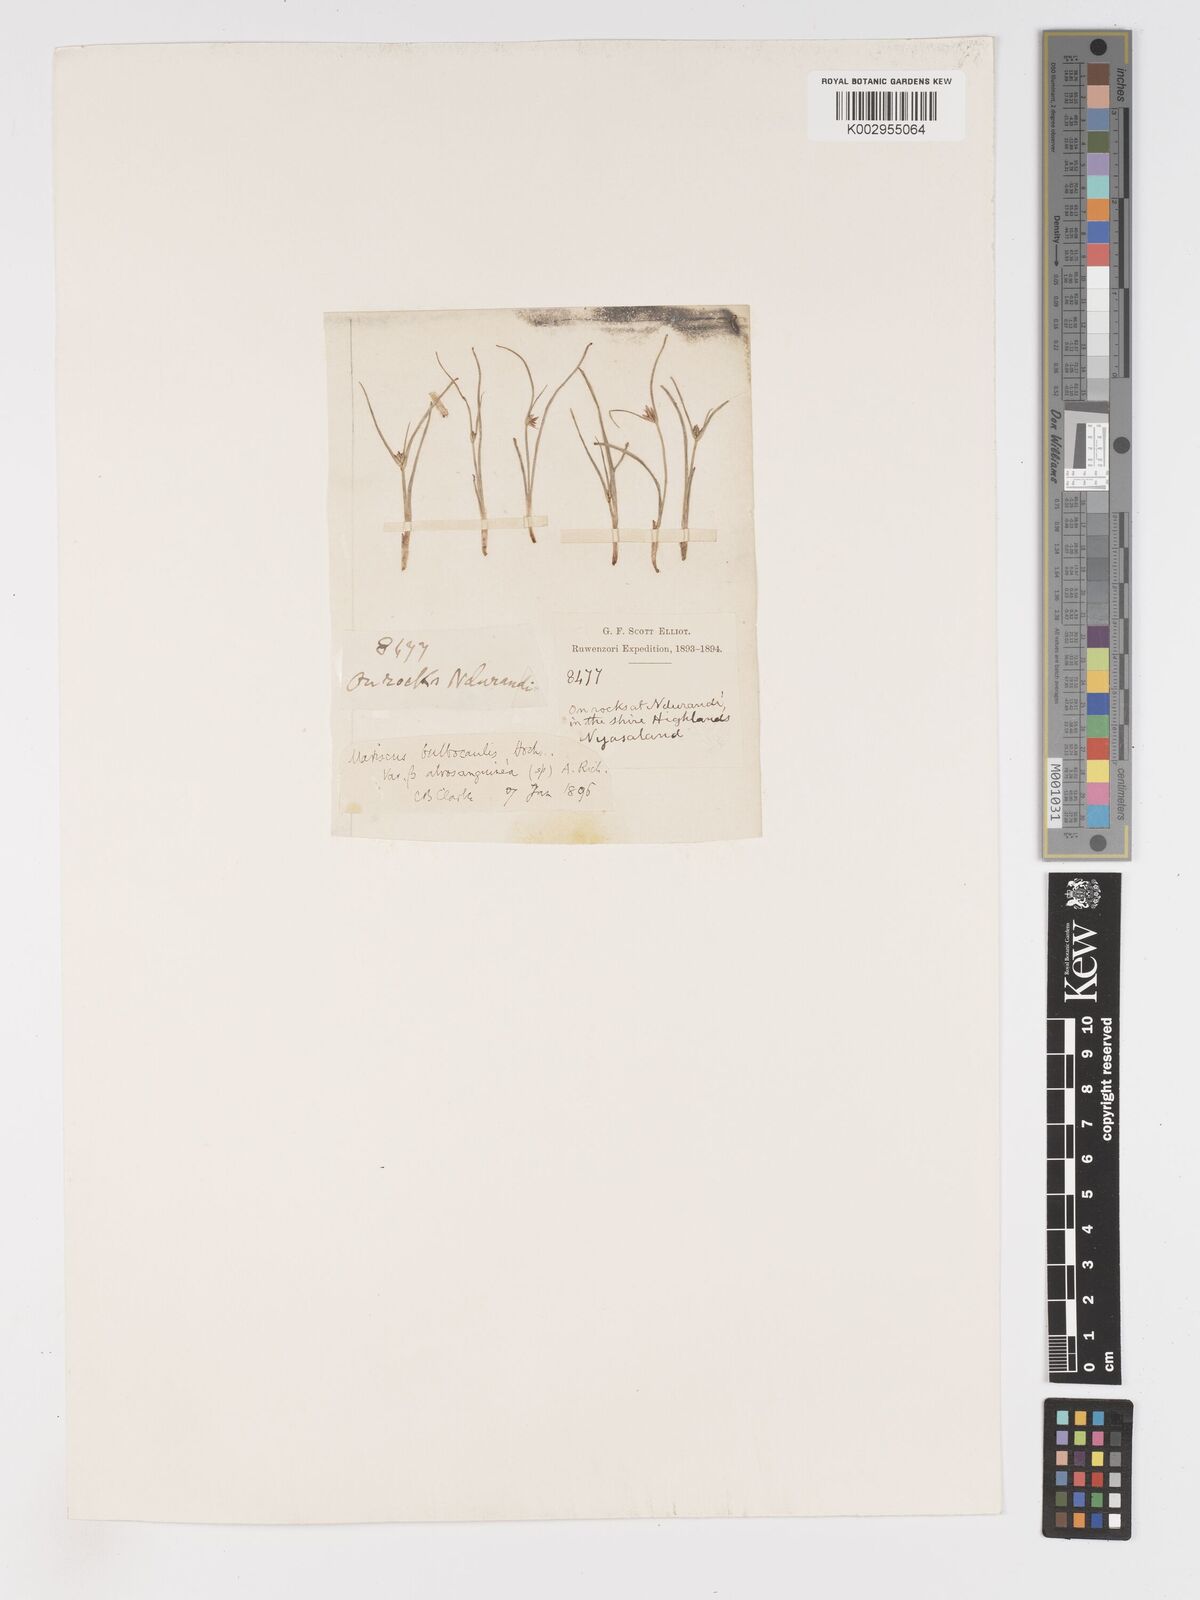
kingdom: Plantae
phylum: Tracheophyta
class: Liliopsida
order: Poales
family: Cyperaceae
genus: Cyperus
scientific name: Cyperus plateilema
